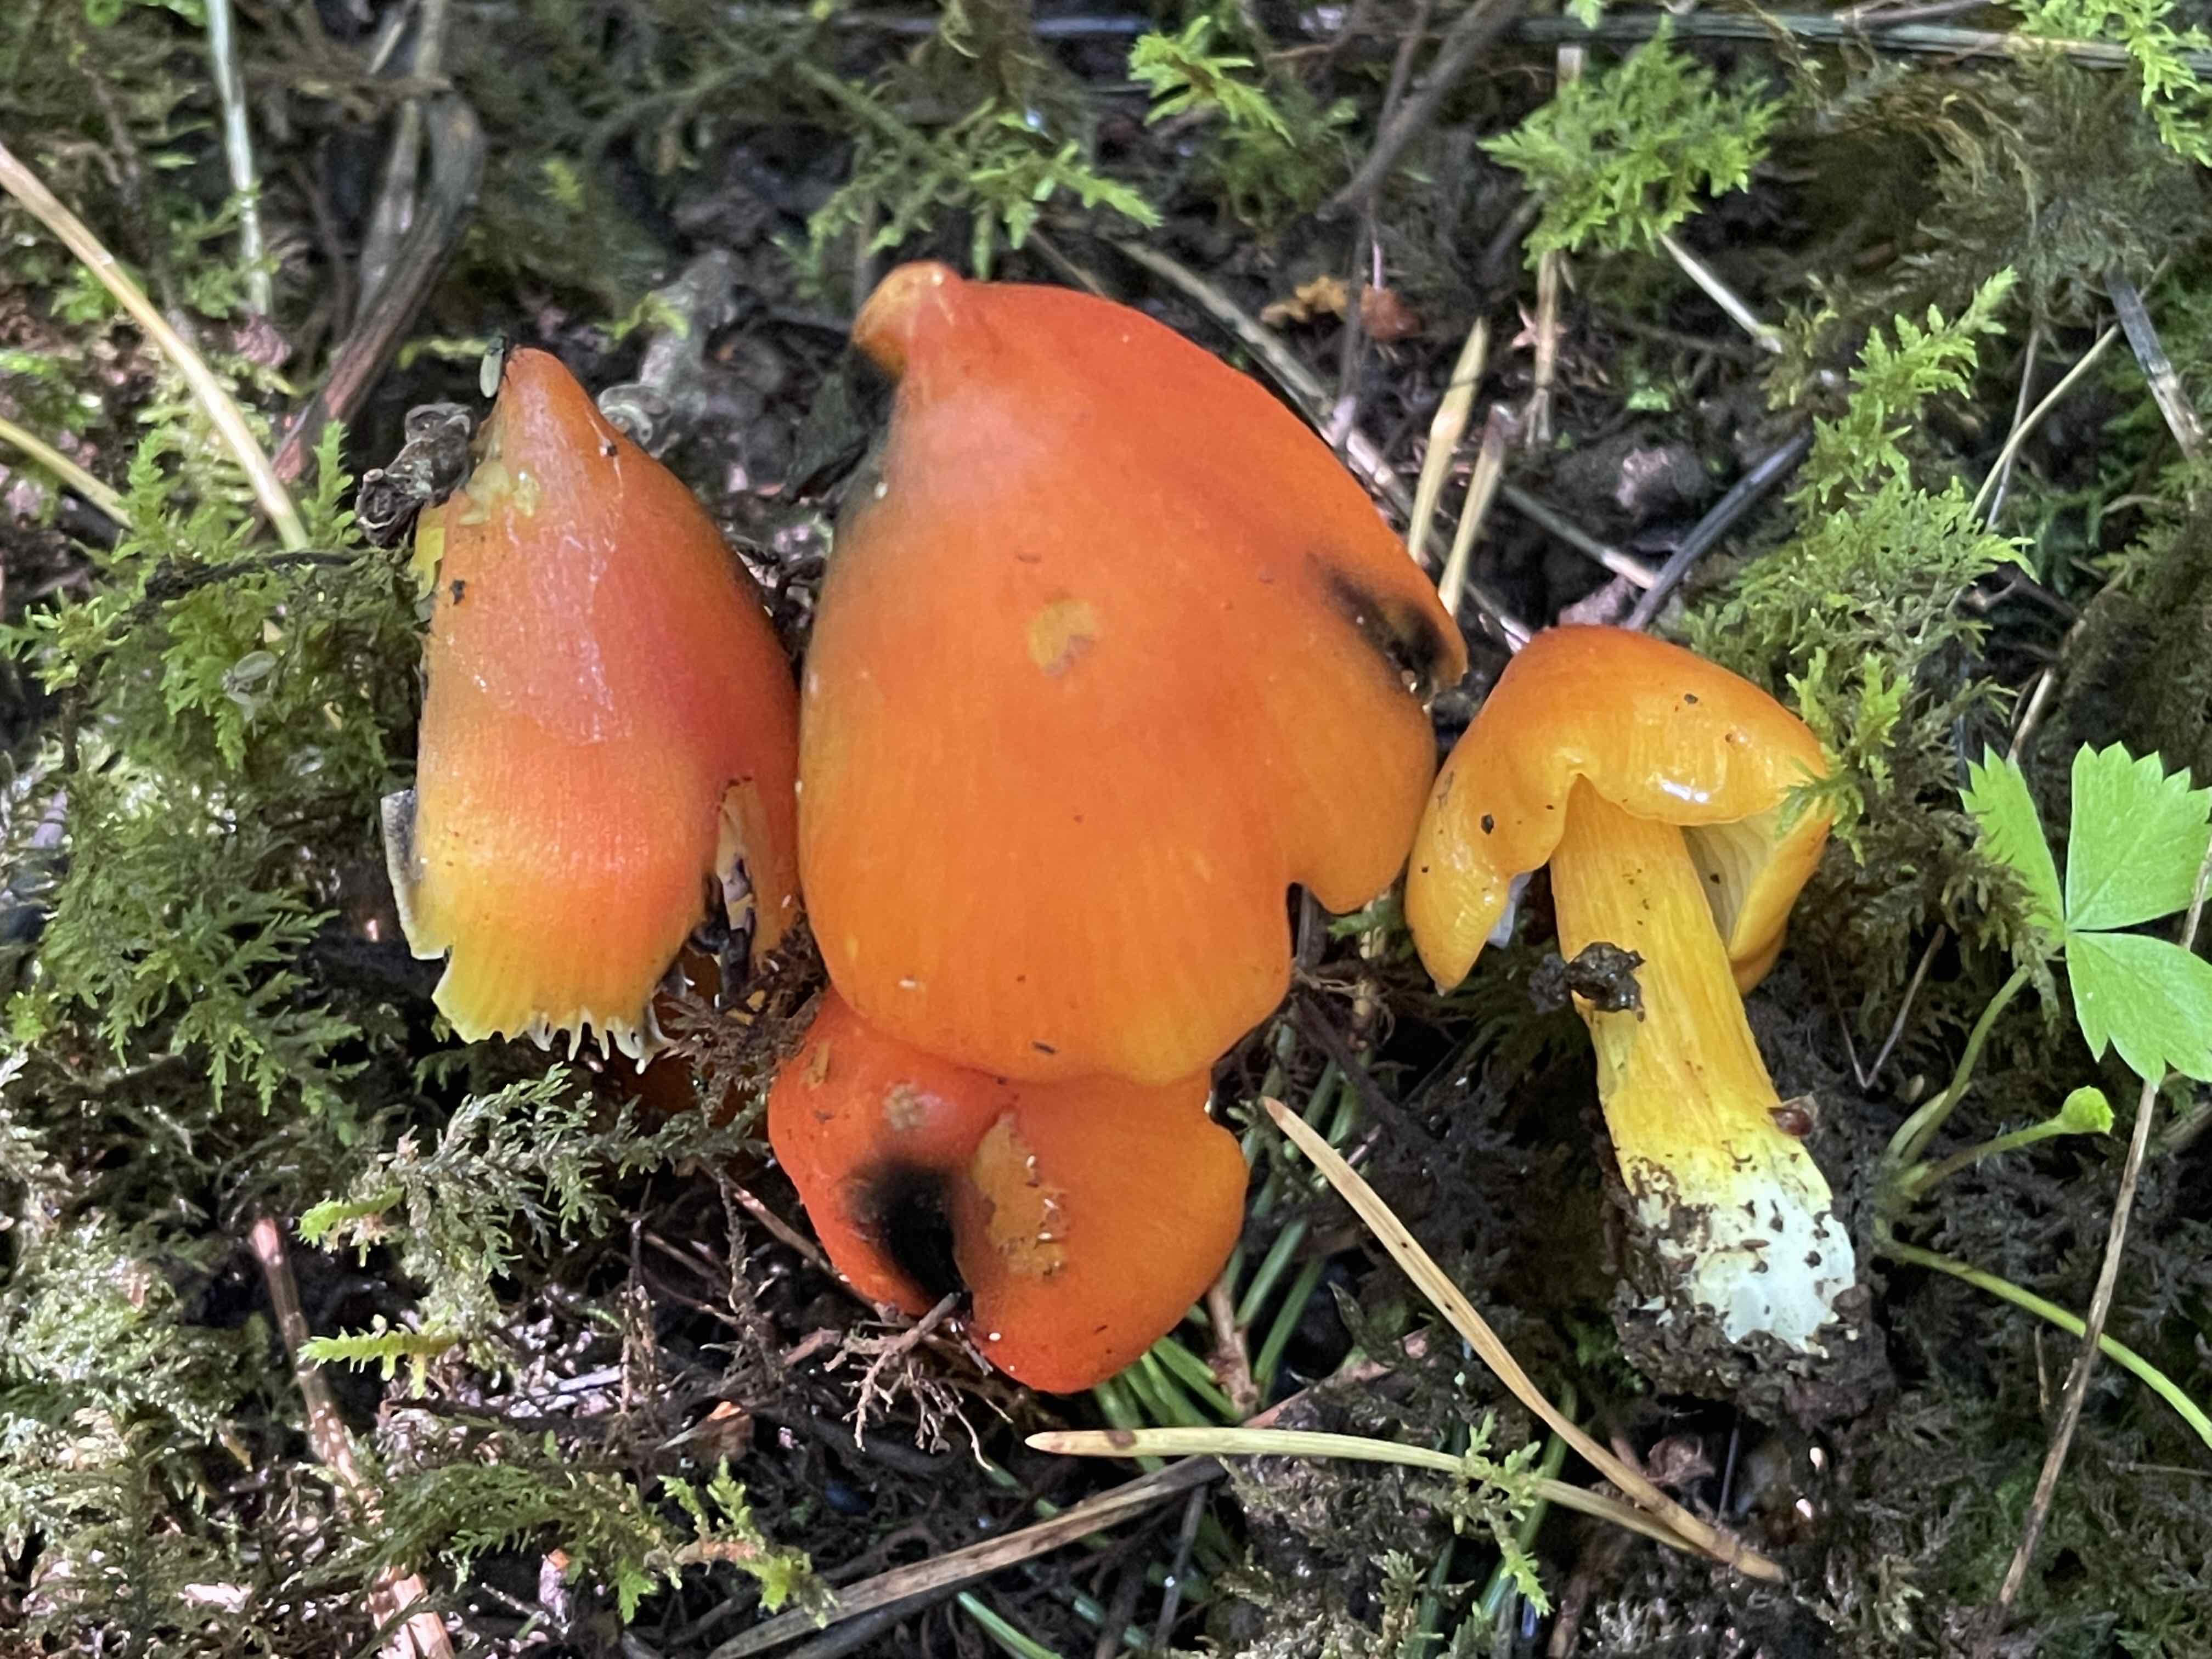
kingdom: Fungi
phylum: Basidiomycota
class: Agaricomycetes
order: Agaricales
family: Hygrophoraceae
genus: Hygrocybe
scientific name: Hygrocybe conica
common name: kegle-vokshat
